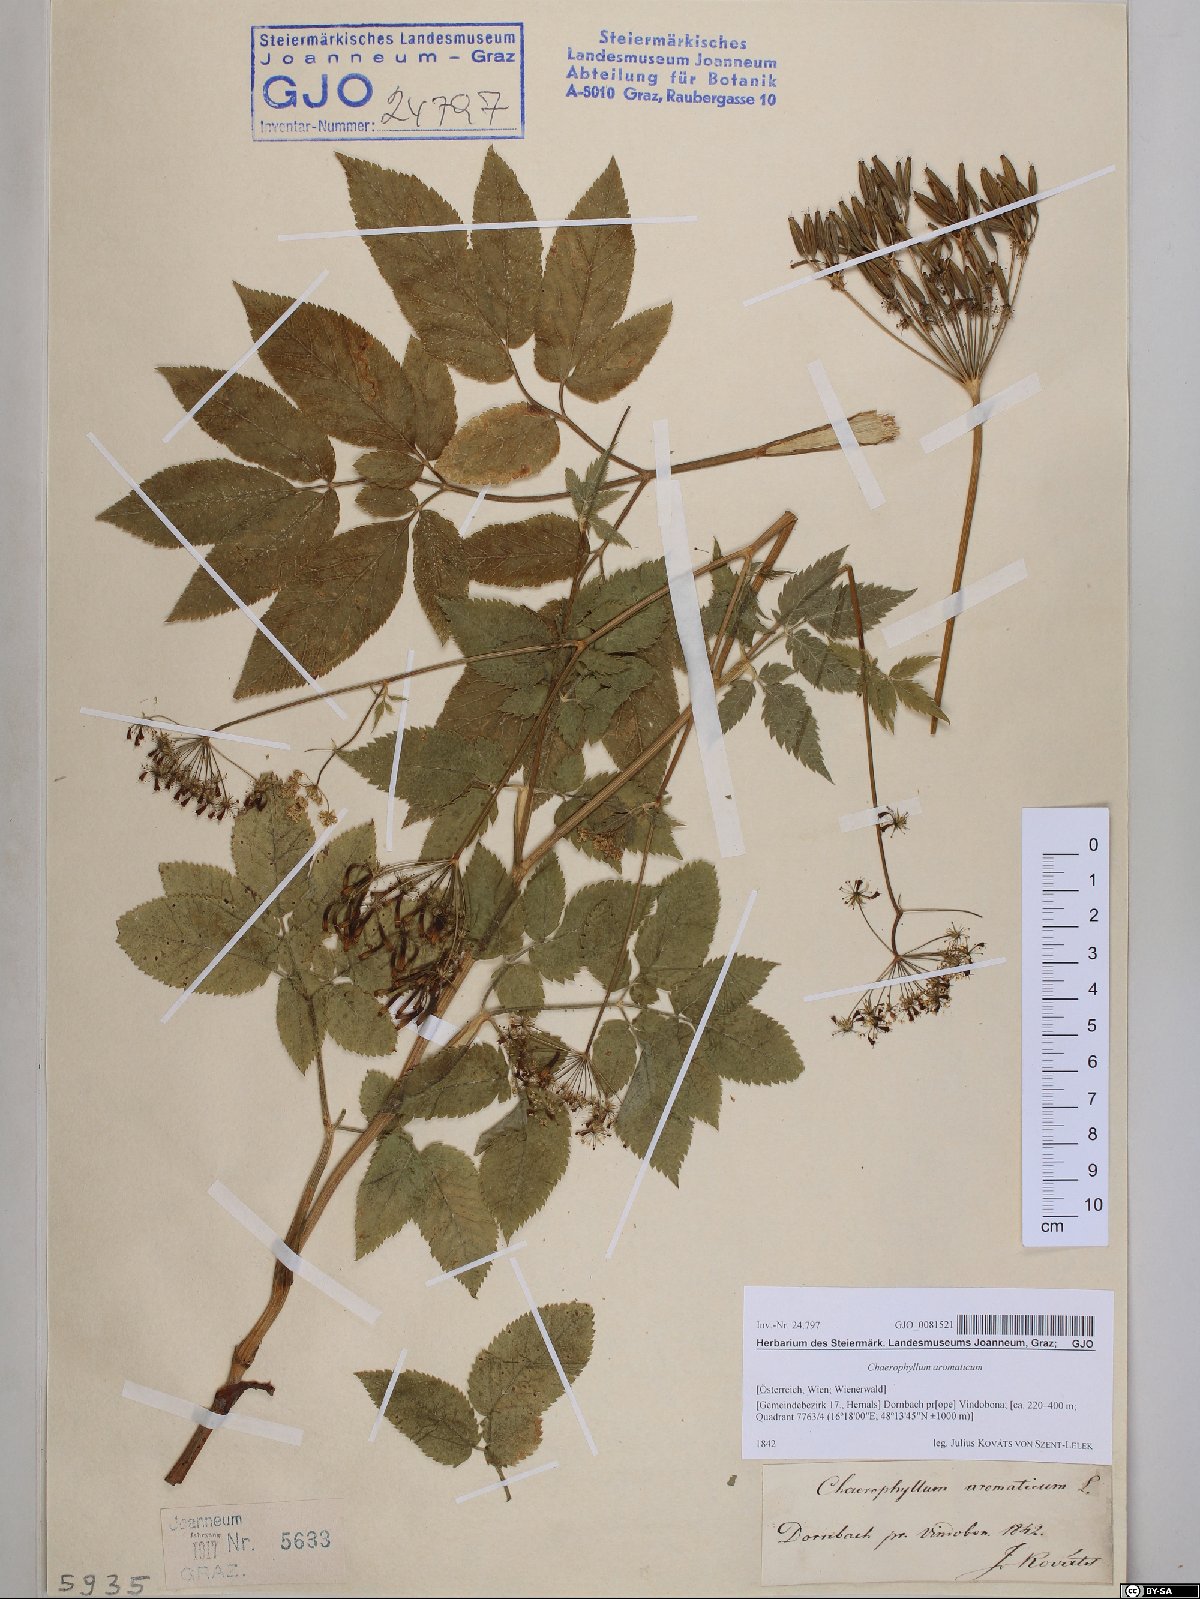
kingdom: Plantae
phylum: Tracheophyta
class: Magnoliopsida
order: Apiales
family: Apiaceae
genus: Chaerophyllum
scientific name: Chaerophyllum aromaticum
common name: Broadleaf chervil
